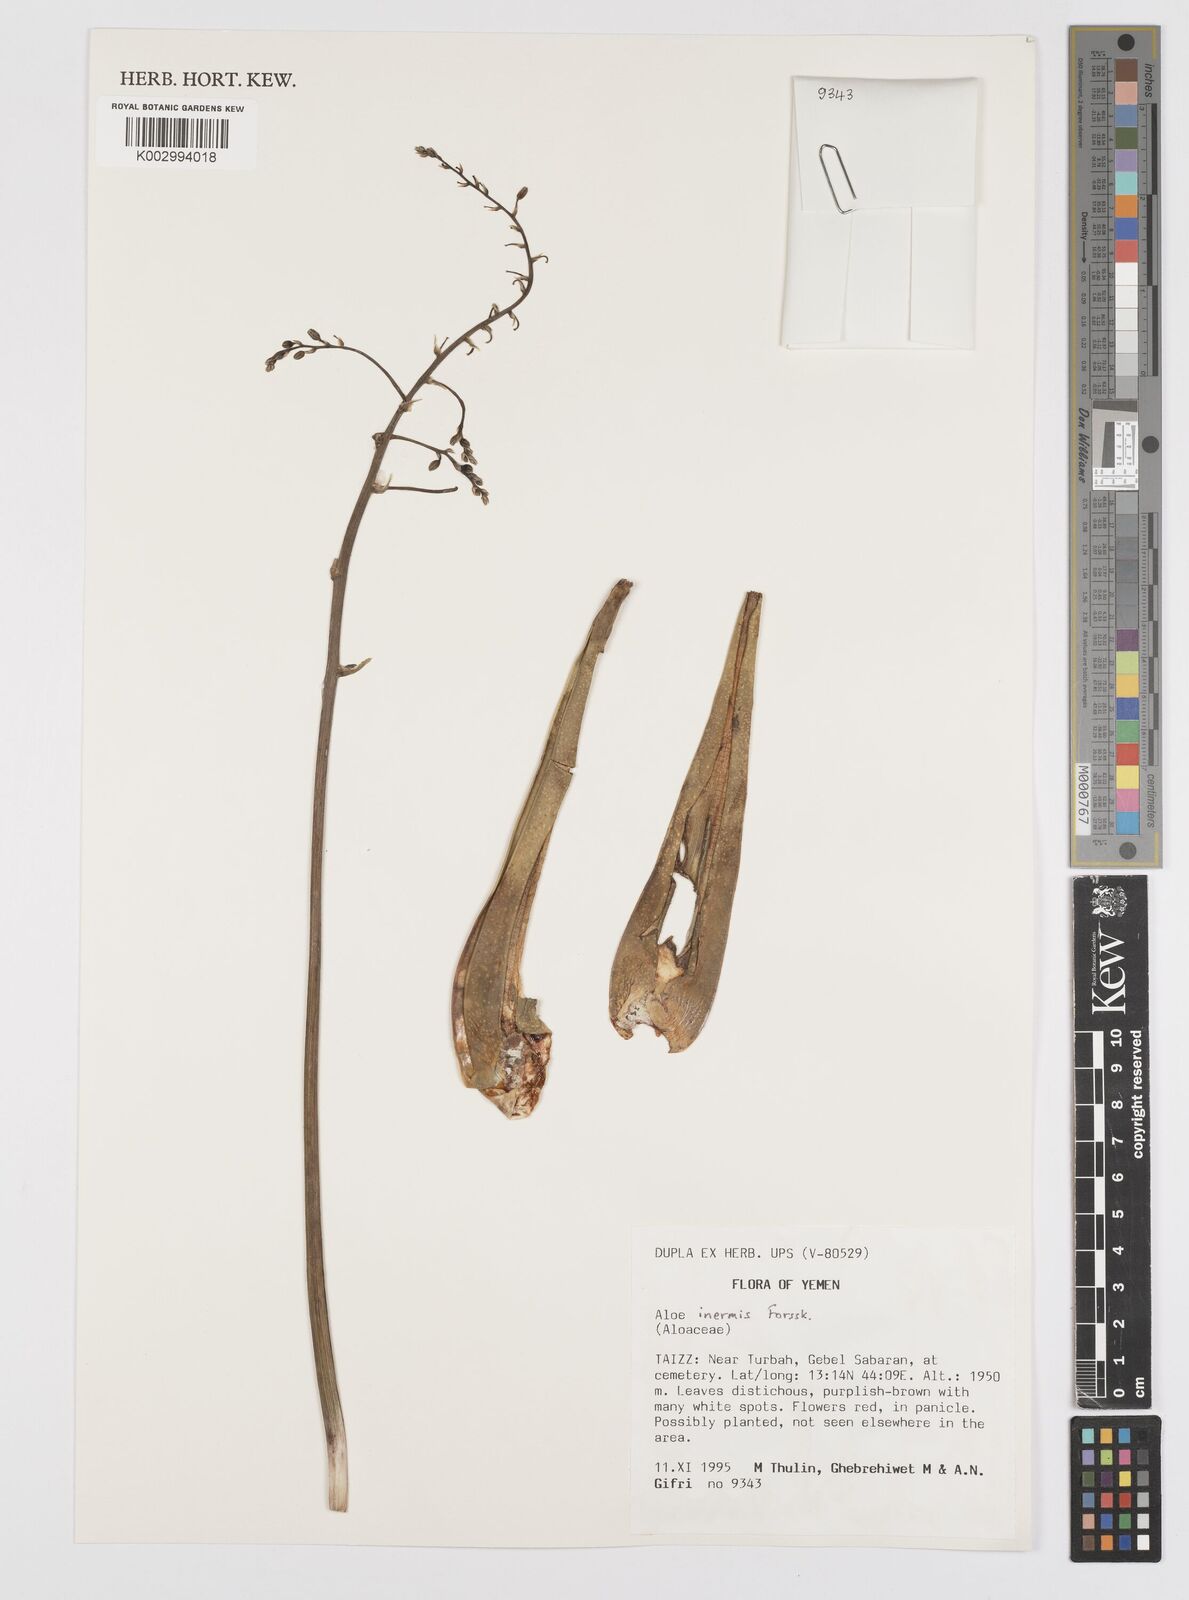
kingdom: Plantae
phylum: Tracheophyta
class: Liliopsida
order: Asparagales
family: Asphodelaceae
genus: Aloe
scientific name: Aloe inermis
